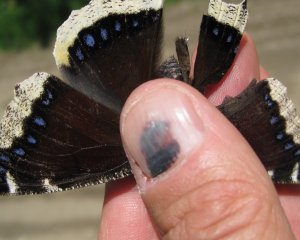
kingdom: Animalia
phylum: Arthropoda
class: Insecta
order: Lepidoptera
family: Nymphalidae
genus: Nymphalis
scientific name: Nymphalis antiopa
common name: Mourning Cloak
